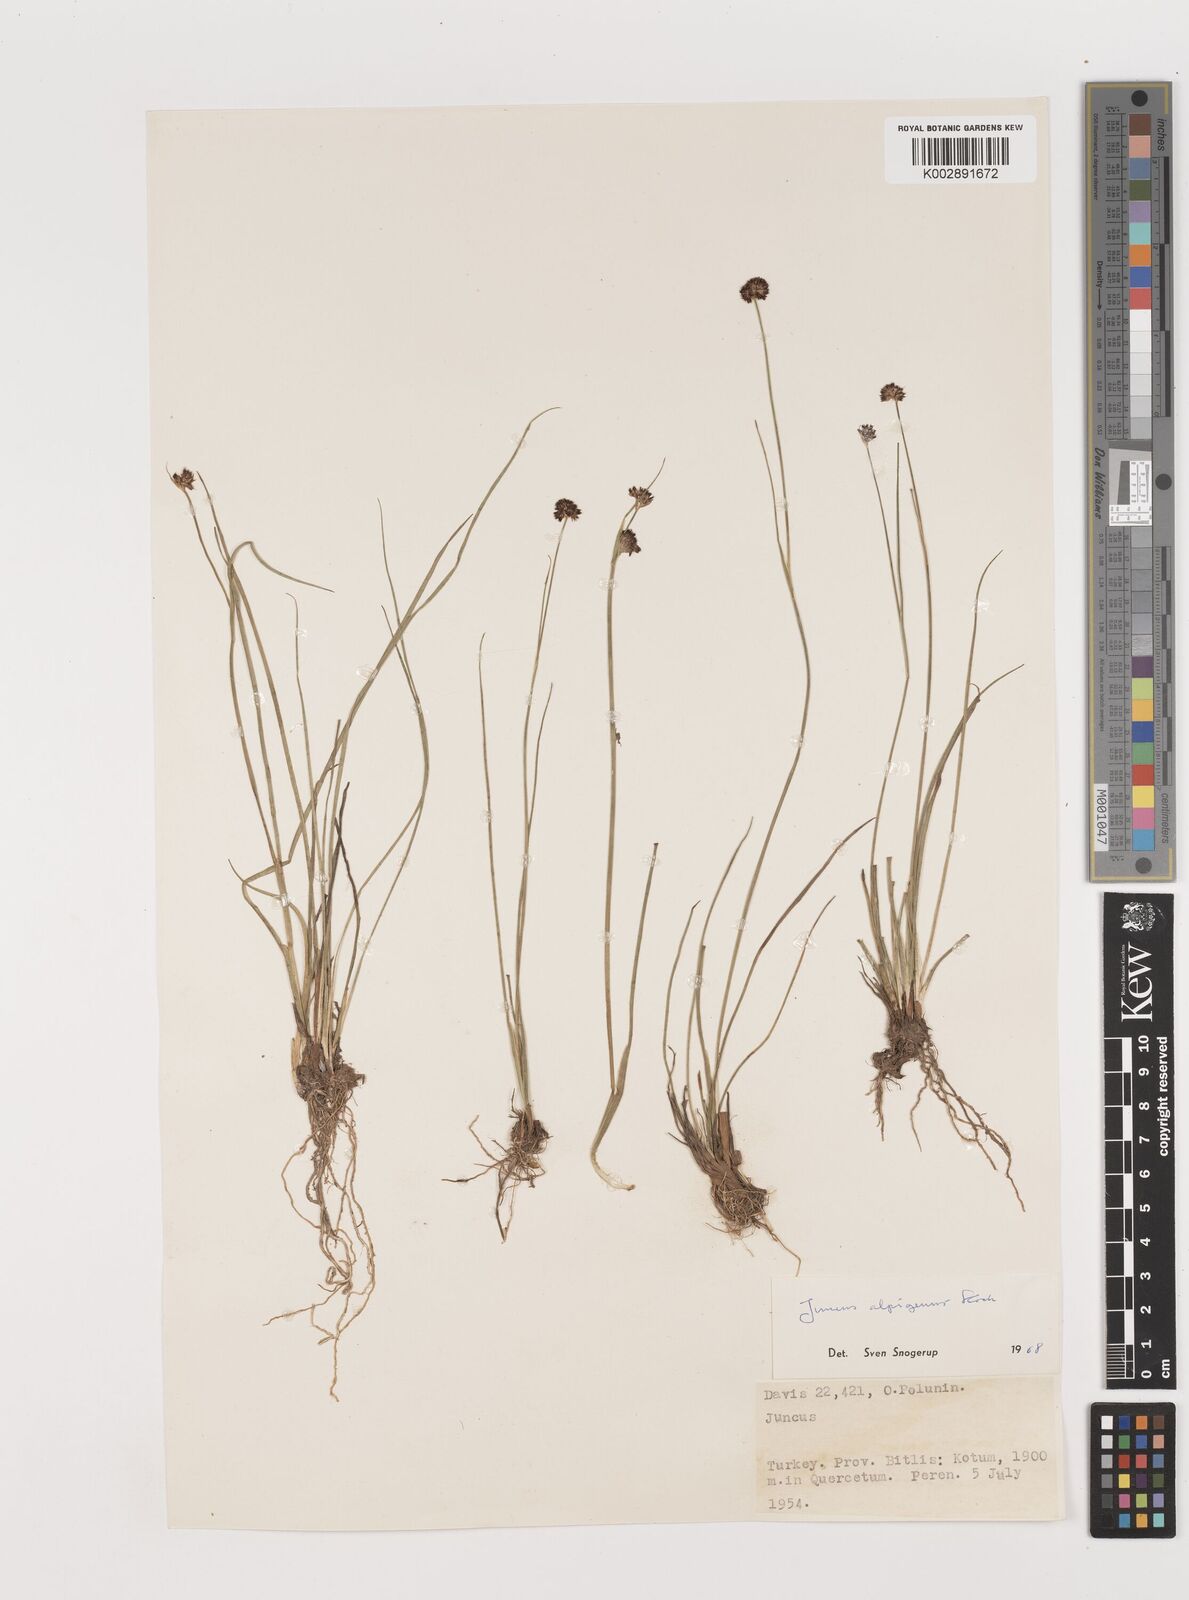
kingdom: Plantae
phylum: Tracheophyta
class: Liliopsida
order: Poales
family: Juncaceae
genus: Juncus
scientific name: Juncus alpigenus
